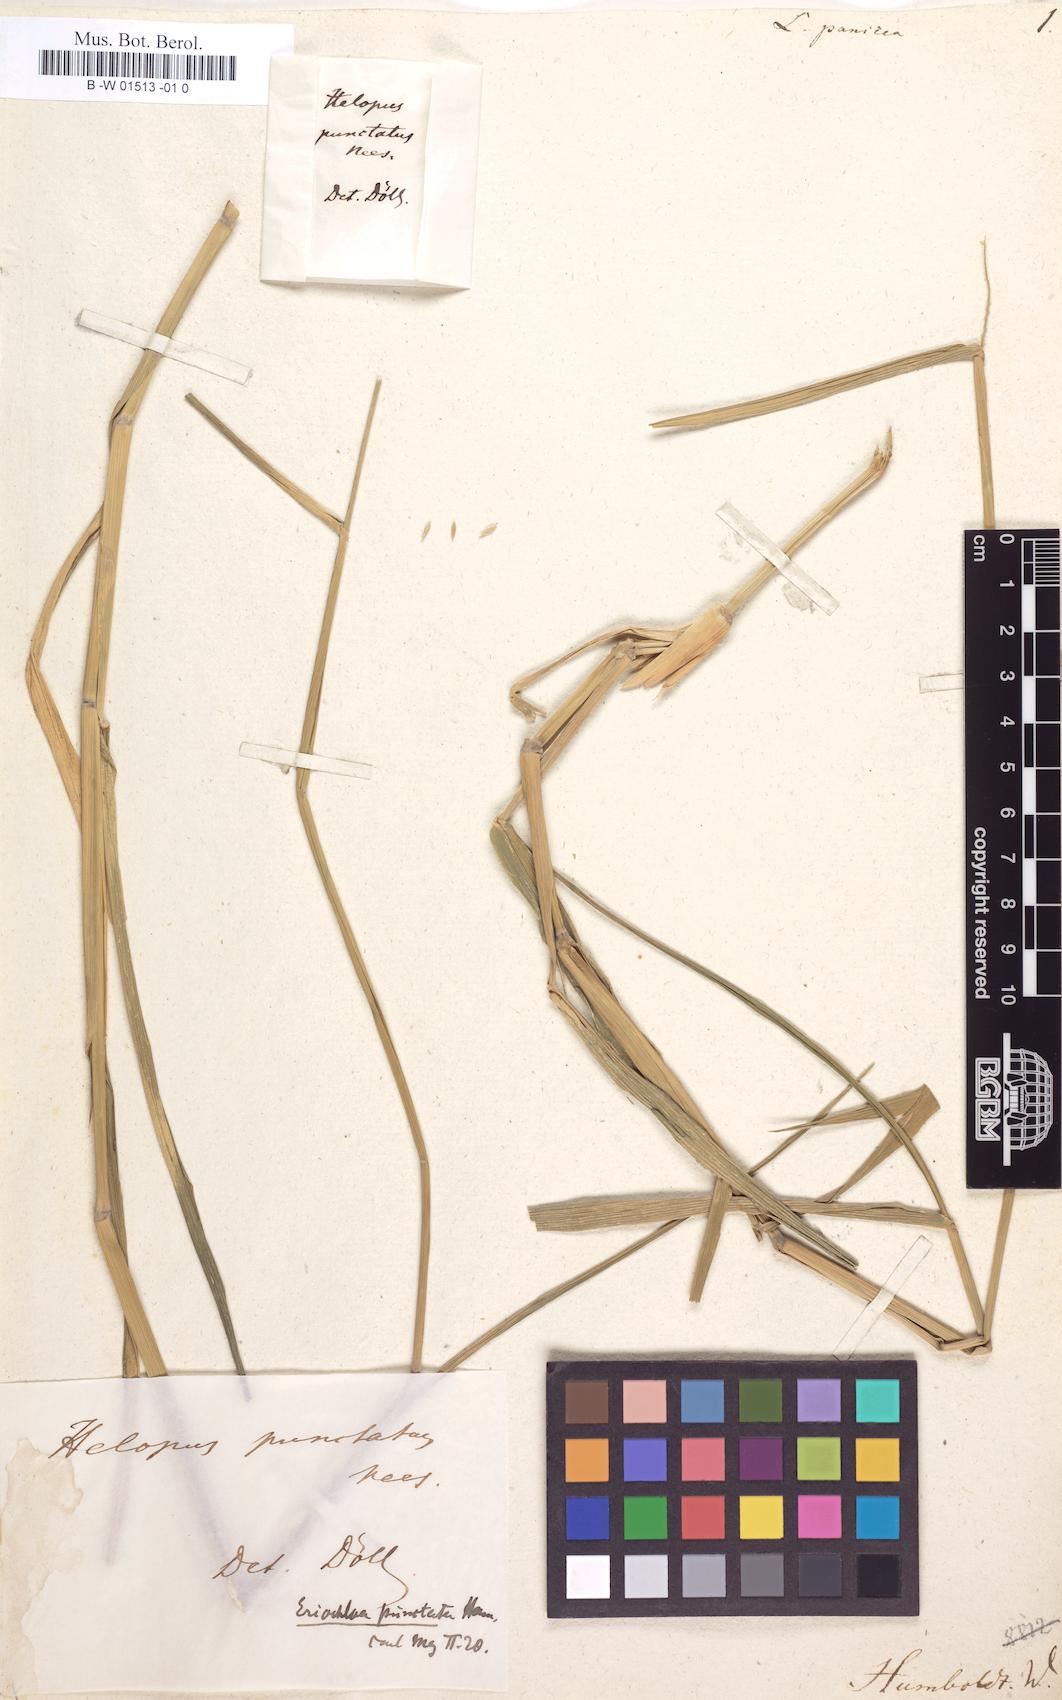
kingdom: Plantae
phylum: Tracheophyta
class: Liliopsida
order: Poales
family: Poaceae
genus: Leersia
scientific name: Leersia
